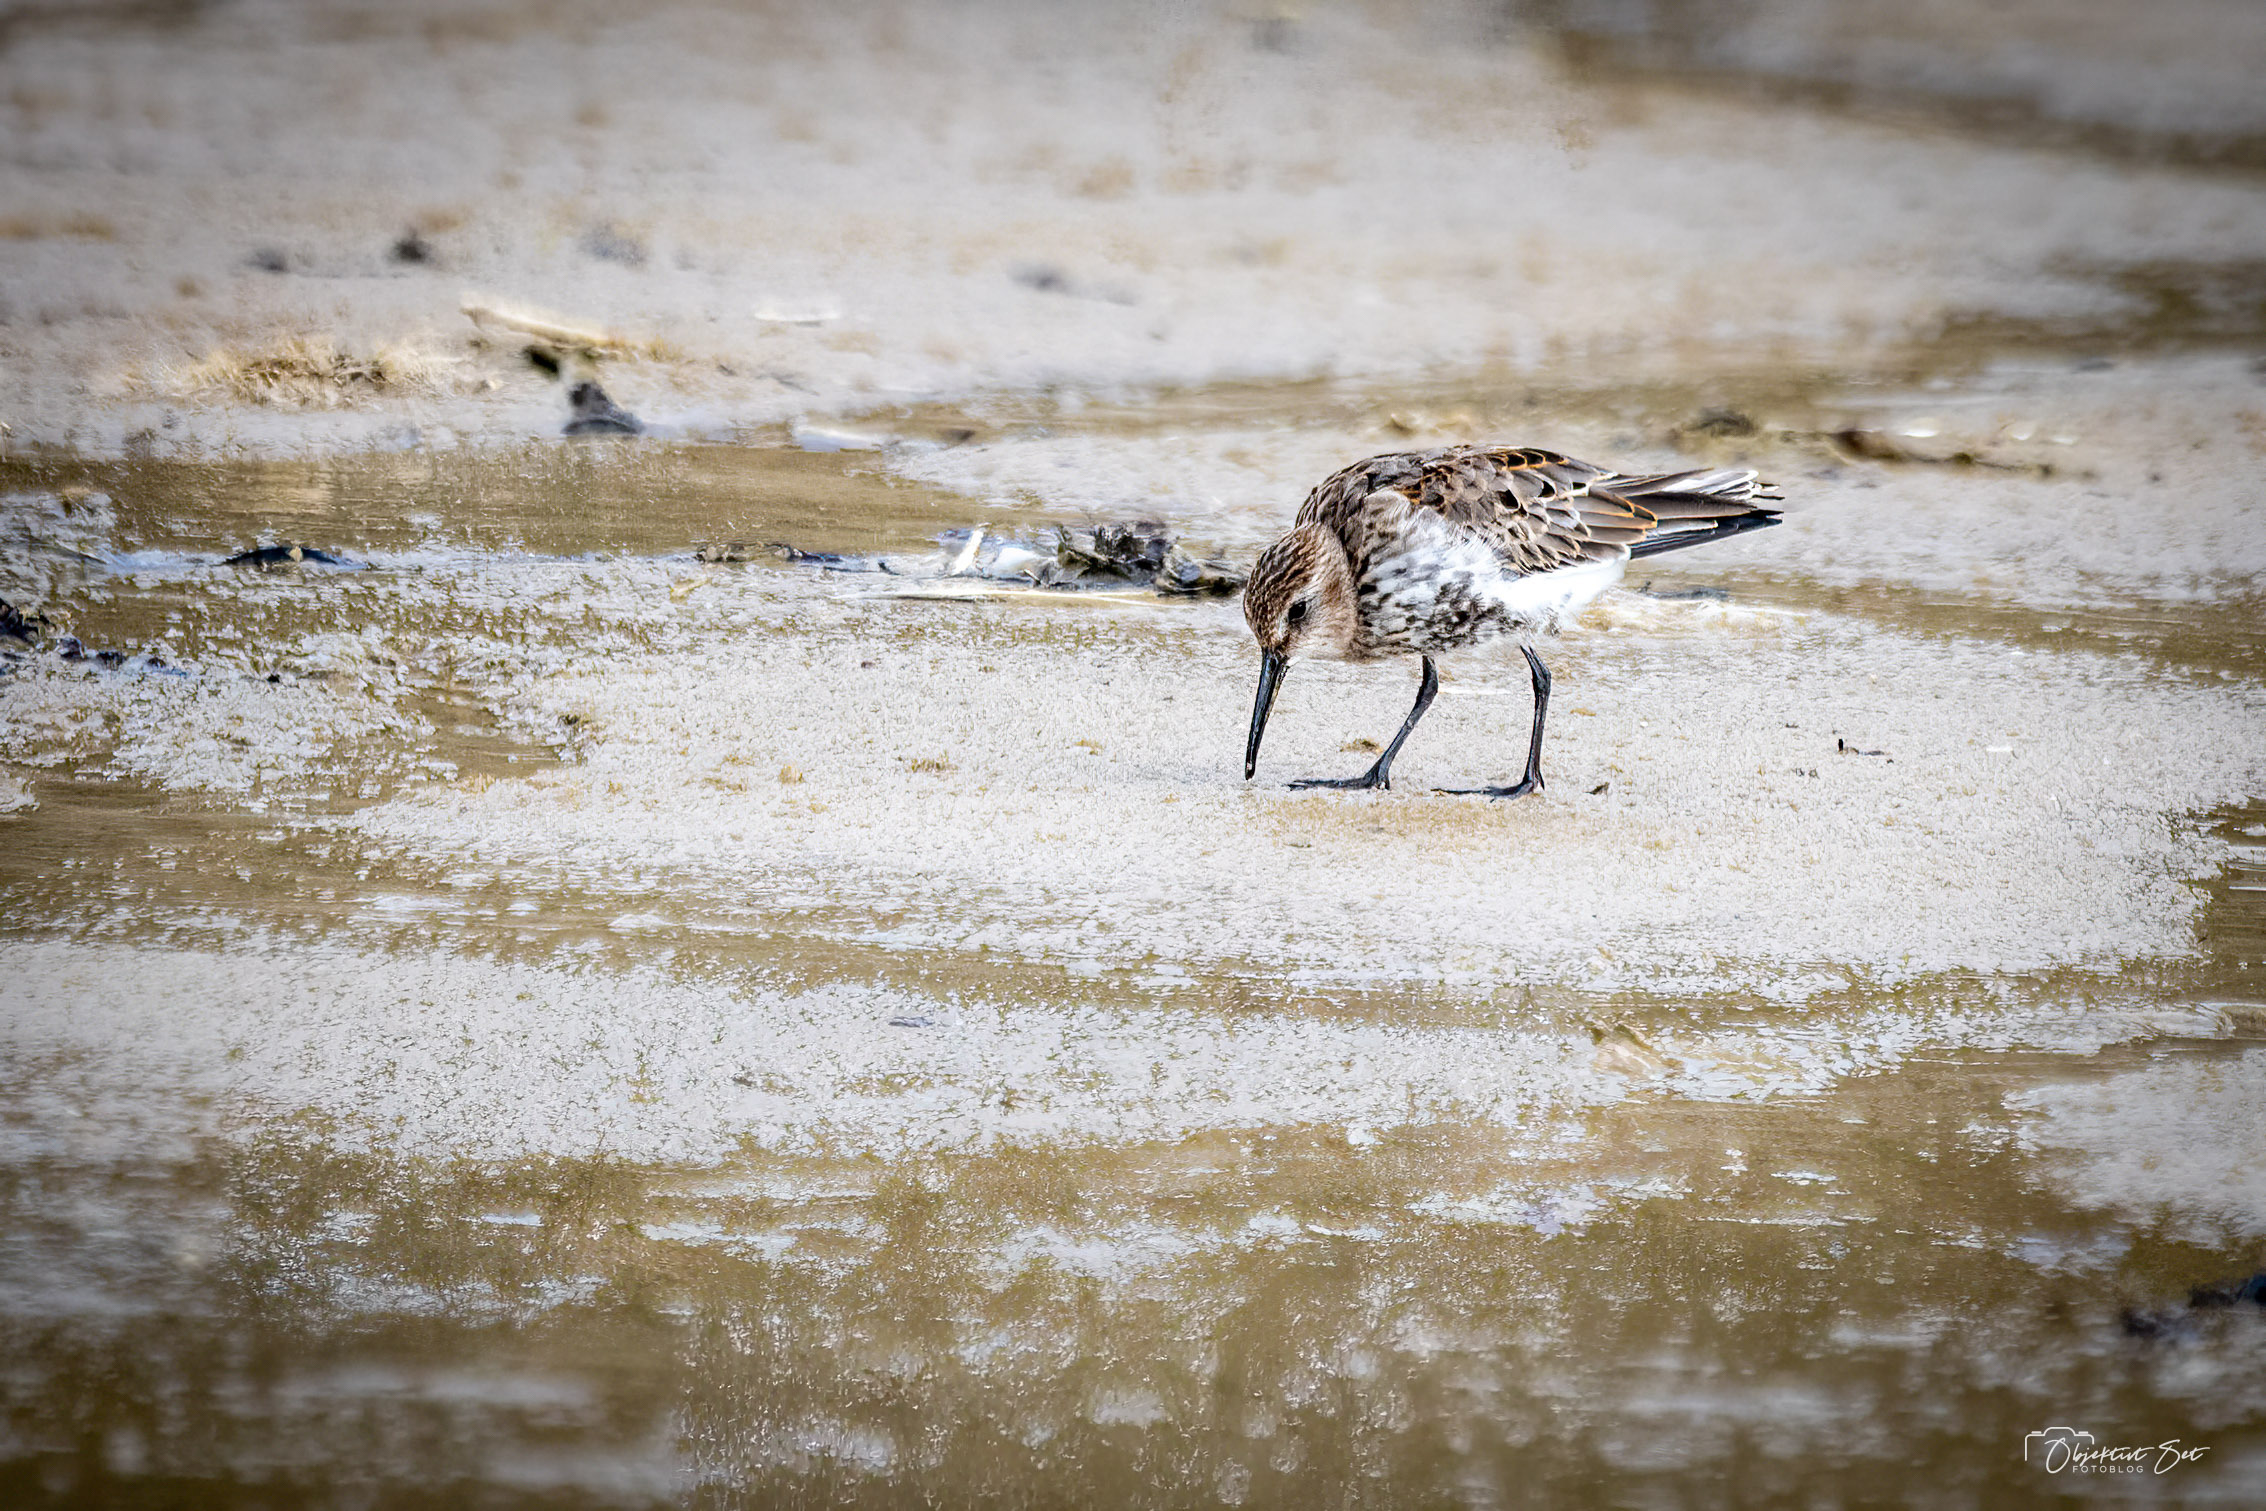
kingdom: Animalia
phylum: Chordata
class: Aves
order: Charadriiformes
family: Scolopacidae
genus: Calidris
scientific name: Calidris alpina
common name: Almindelig ryle
